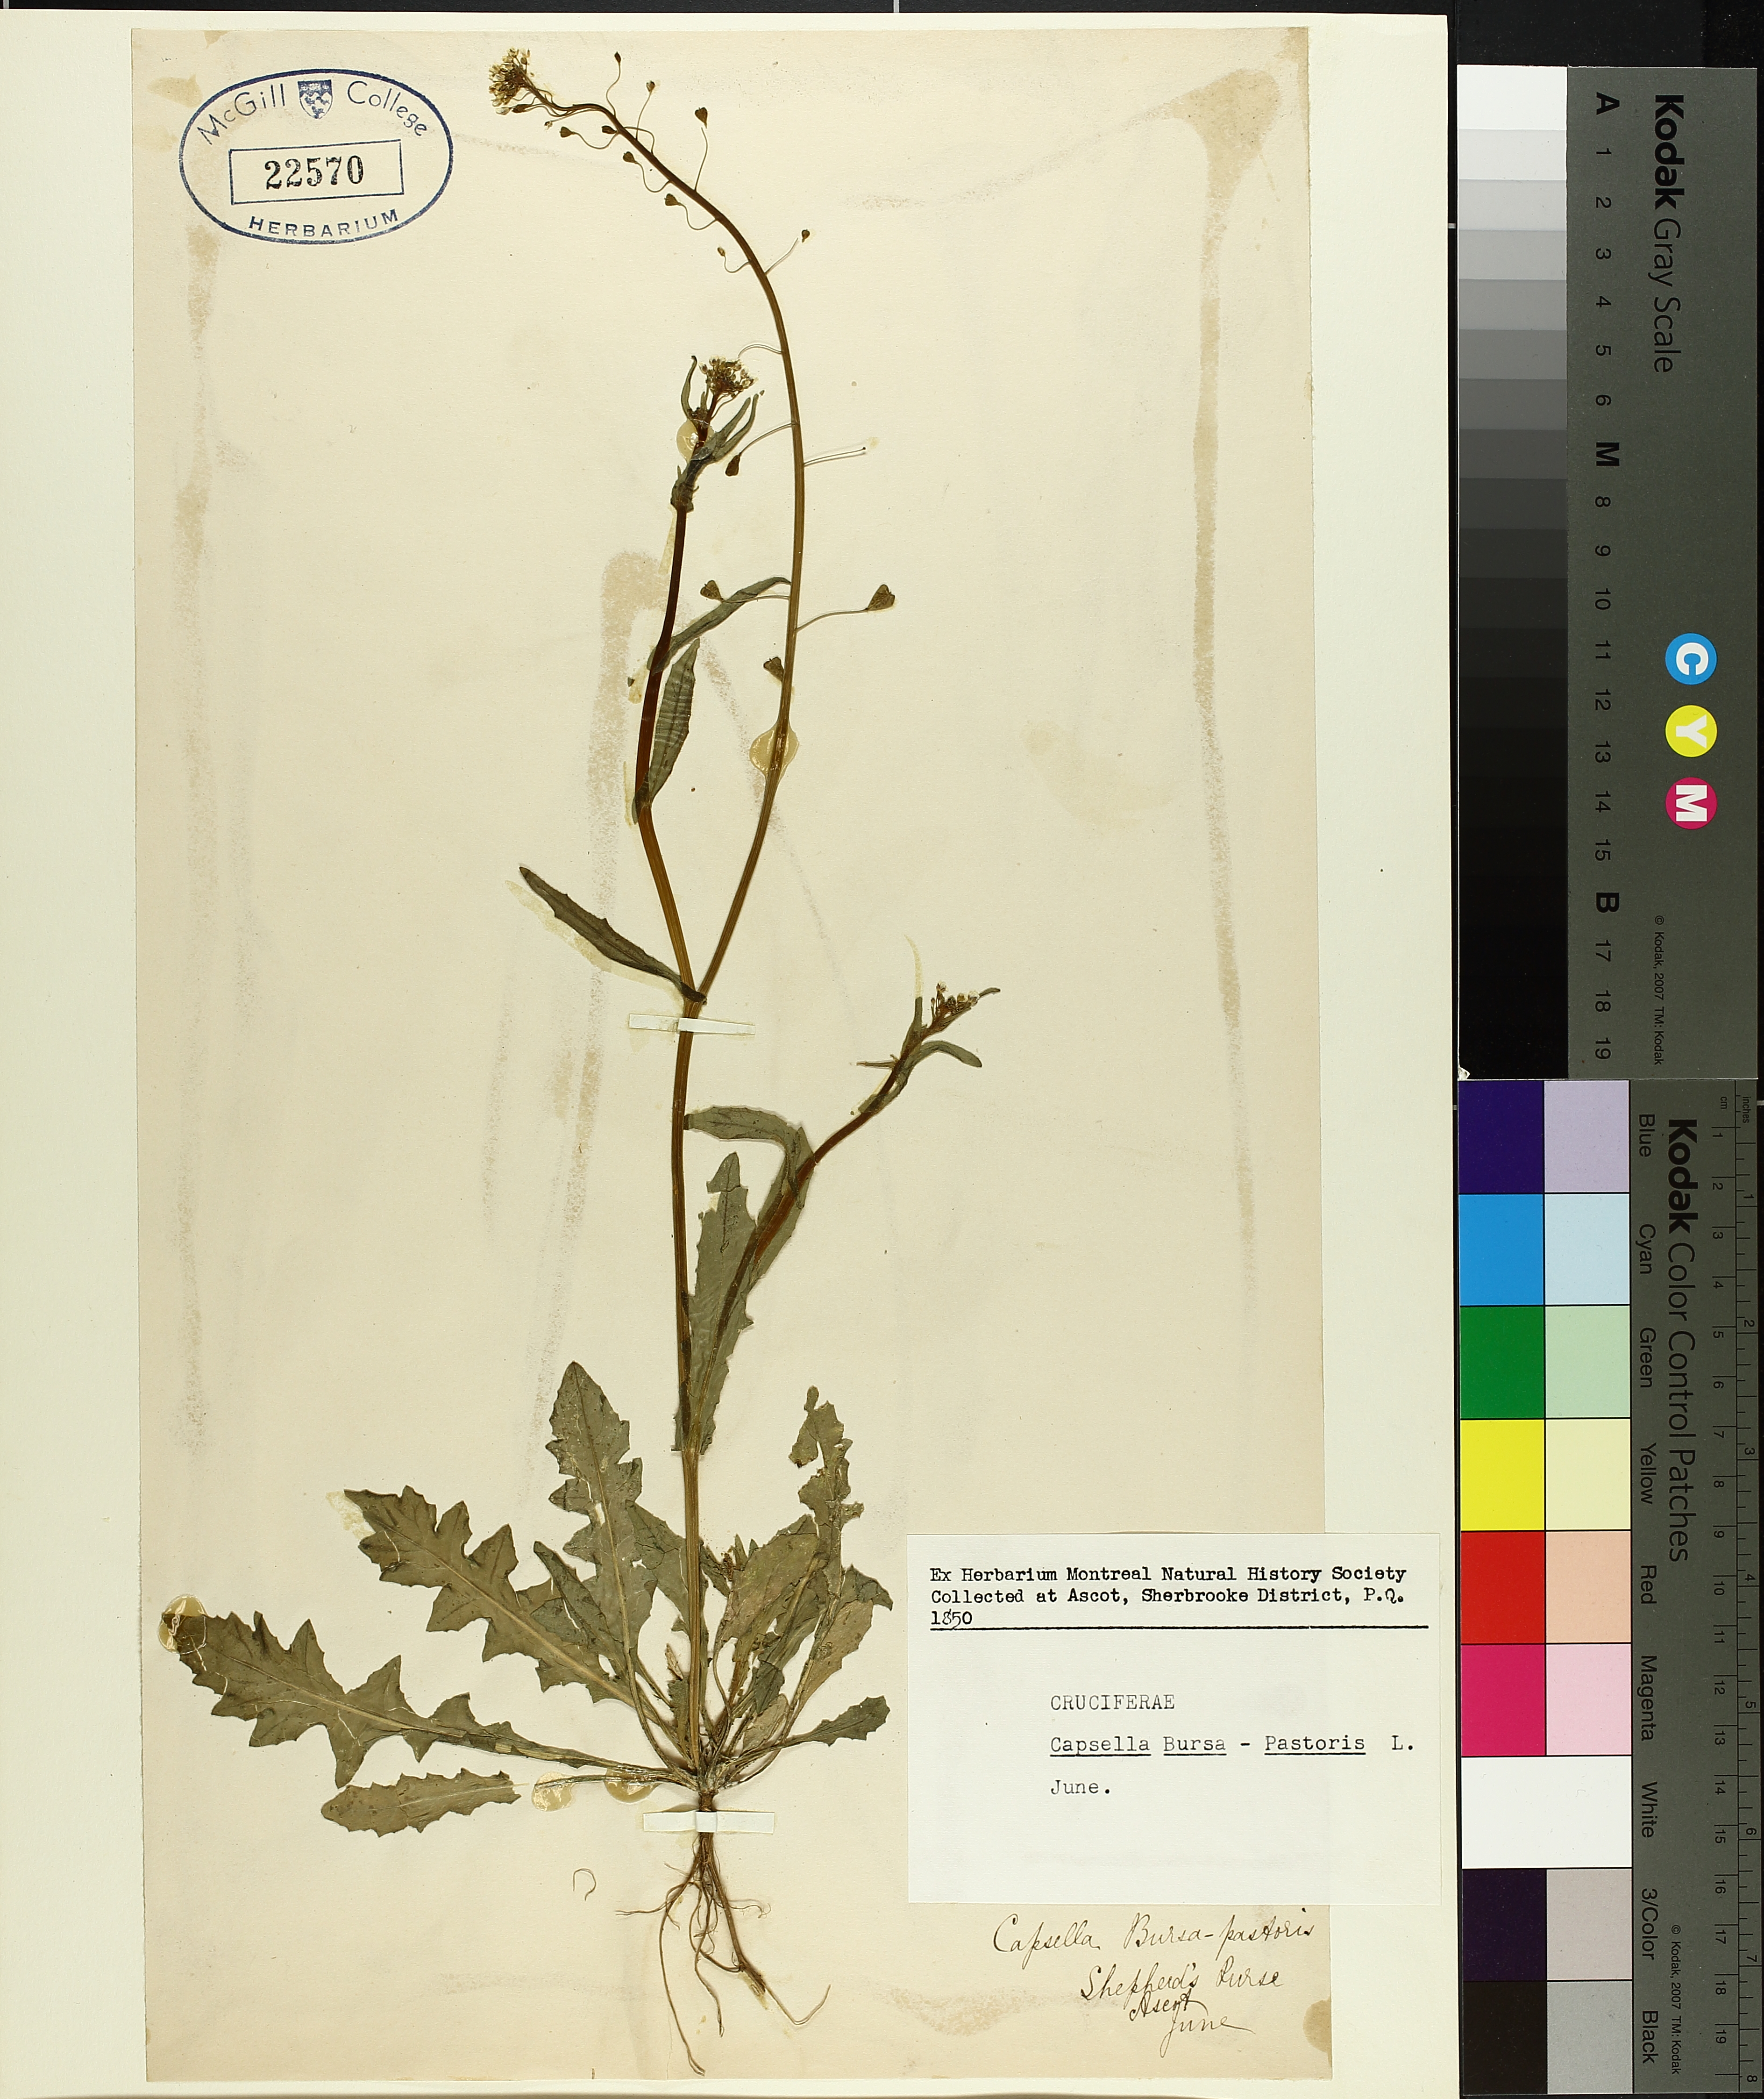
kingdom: Plantae
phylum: Tracheophyta
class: Polypodiopsida
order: Polypodiales
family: Dennstaedtiaceae
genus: Pteridium
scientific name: Pteridium aquilinum
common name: Bracken
